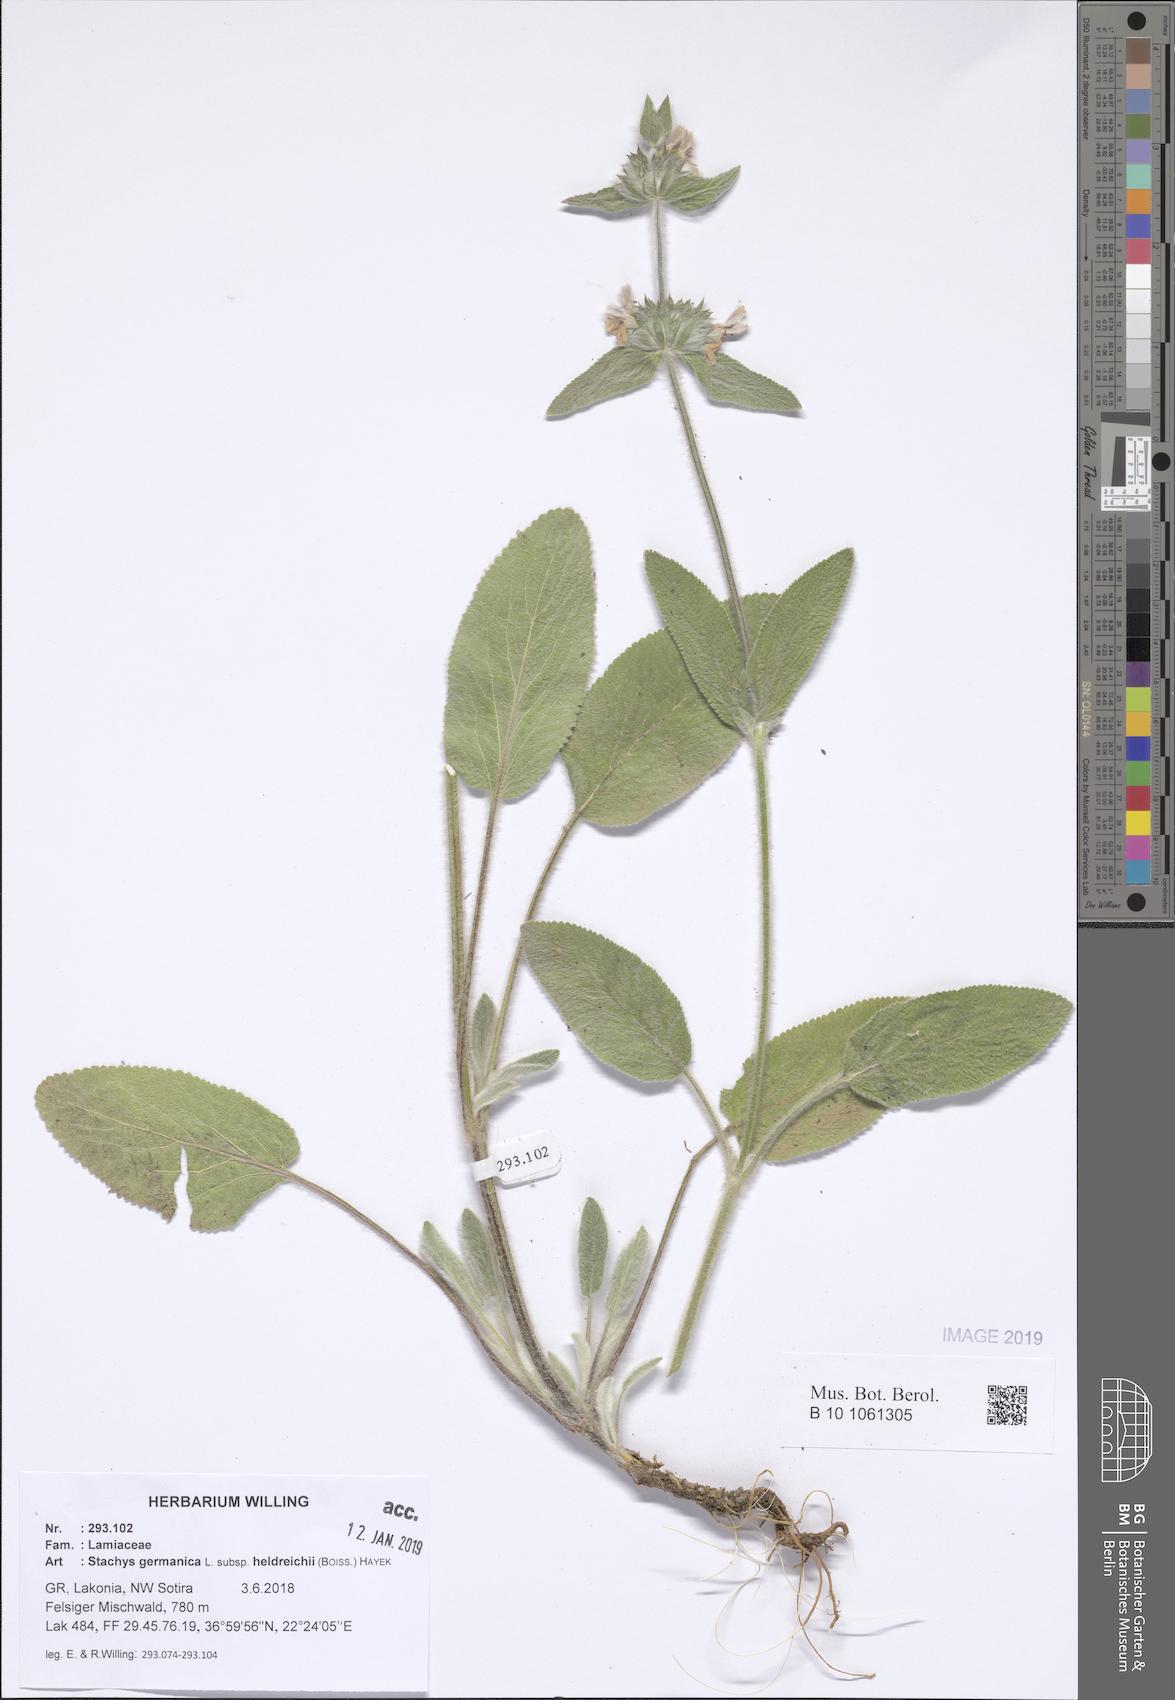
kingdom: Plantae
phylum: Tracheophyta
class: Magnoliopsida
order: Lamiales
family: Lamiaceae
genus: Stachys
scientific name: Stachys germanica
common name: Downy woundwort
